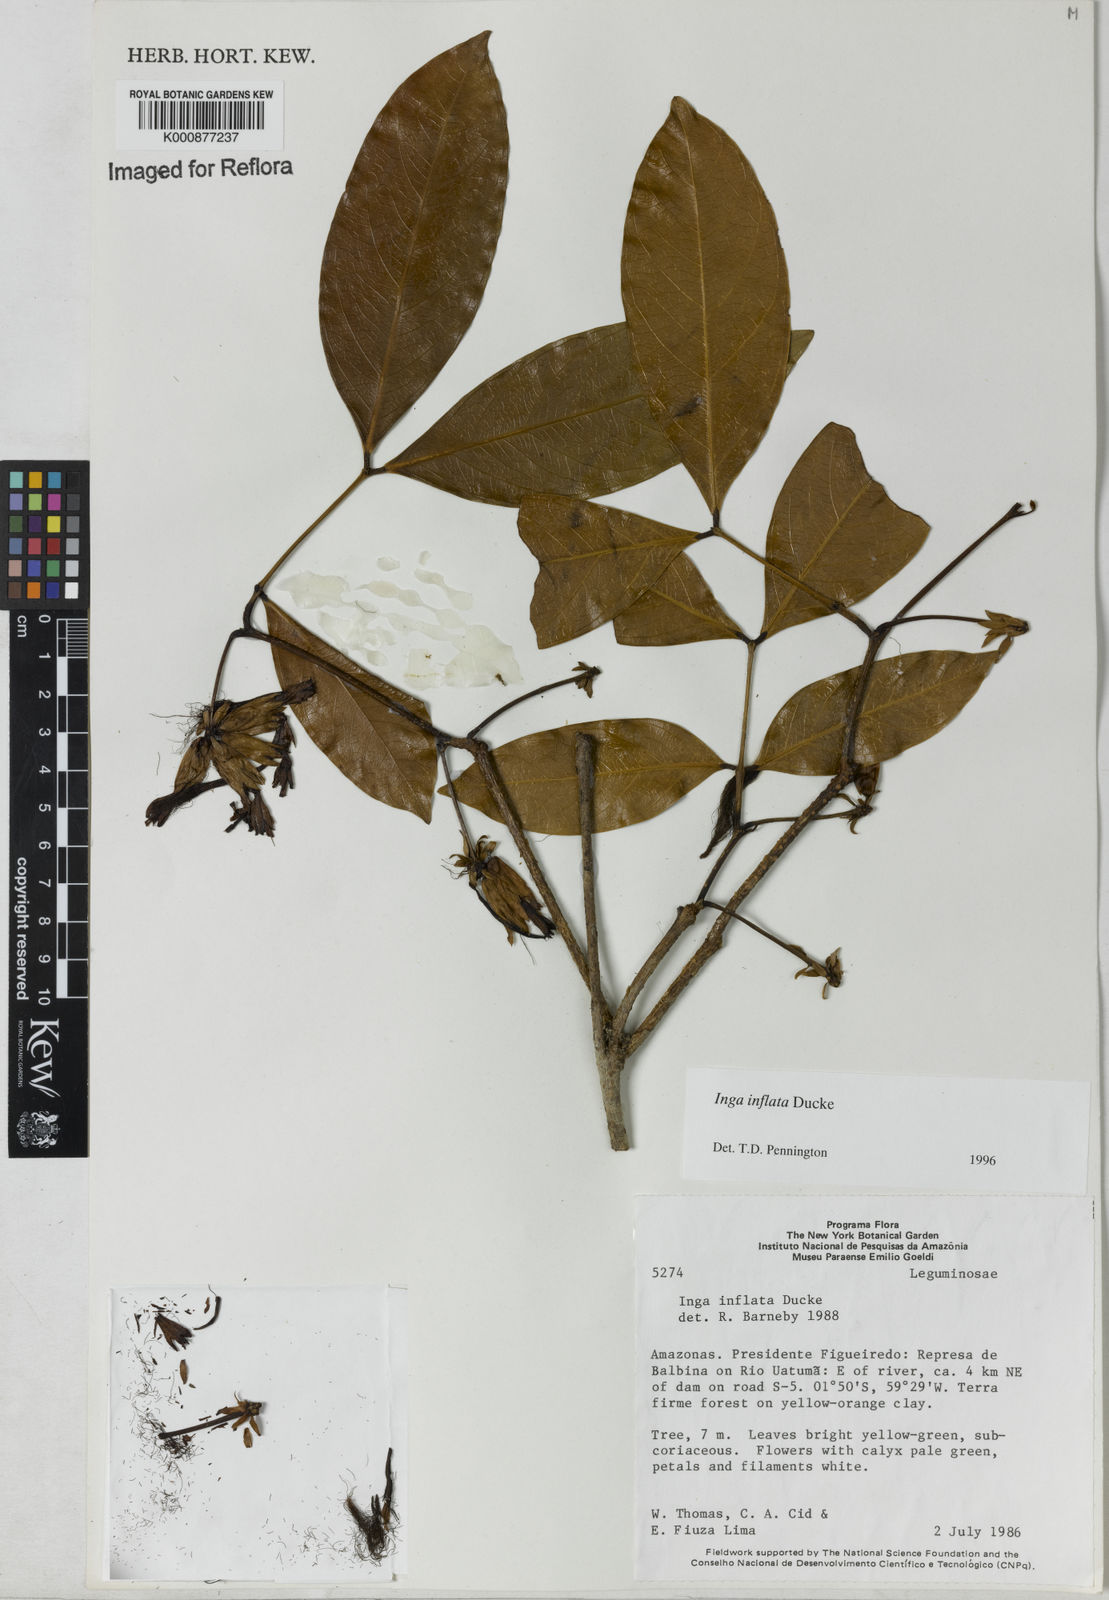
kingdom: Plantae
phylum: Tracheophyta
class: Magnoliopsida
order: Fabales
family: Fabaceae
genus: Inga
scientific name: Inga inflata
